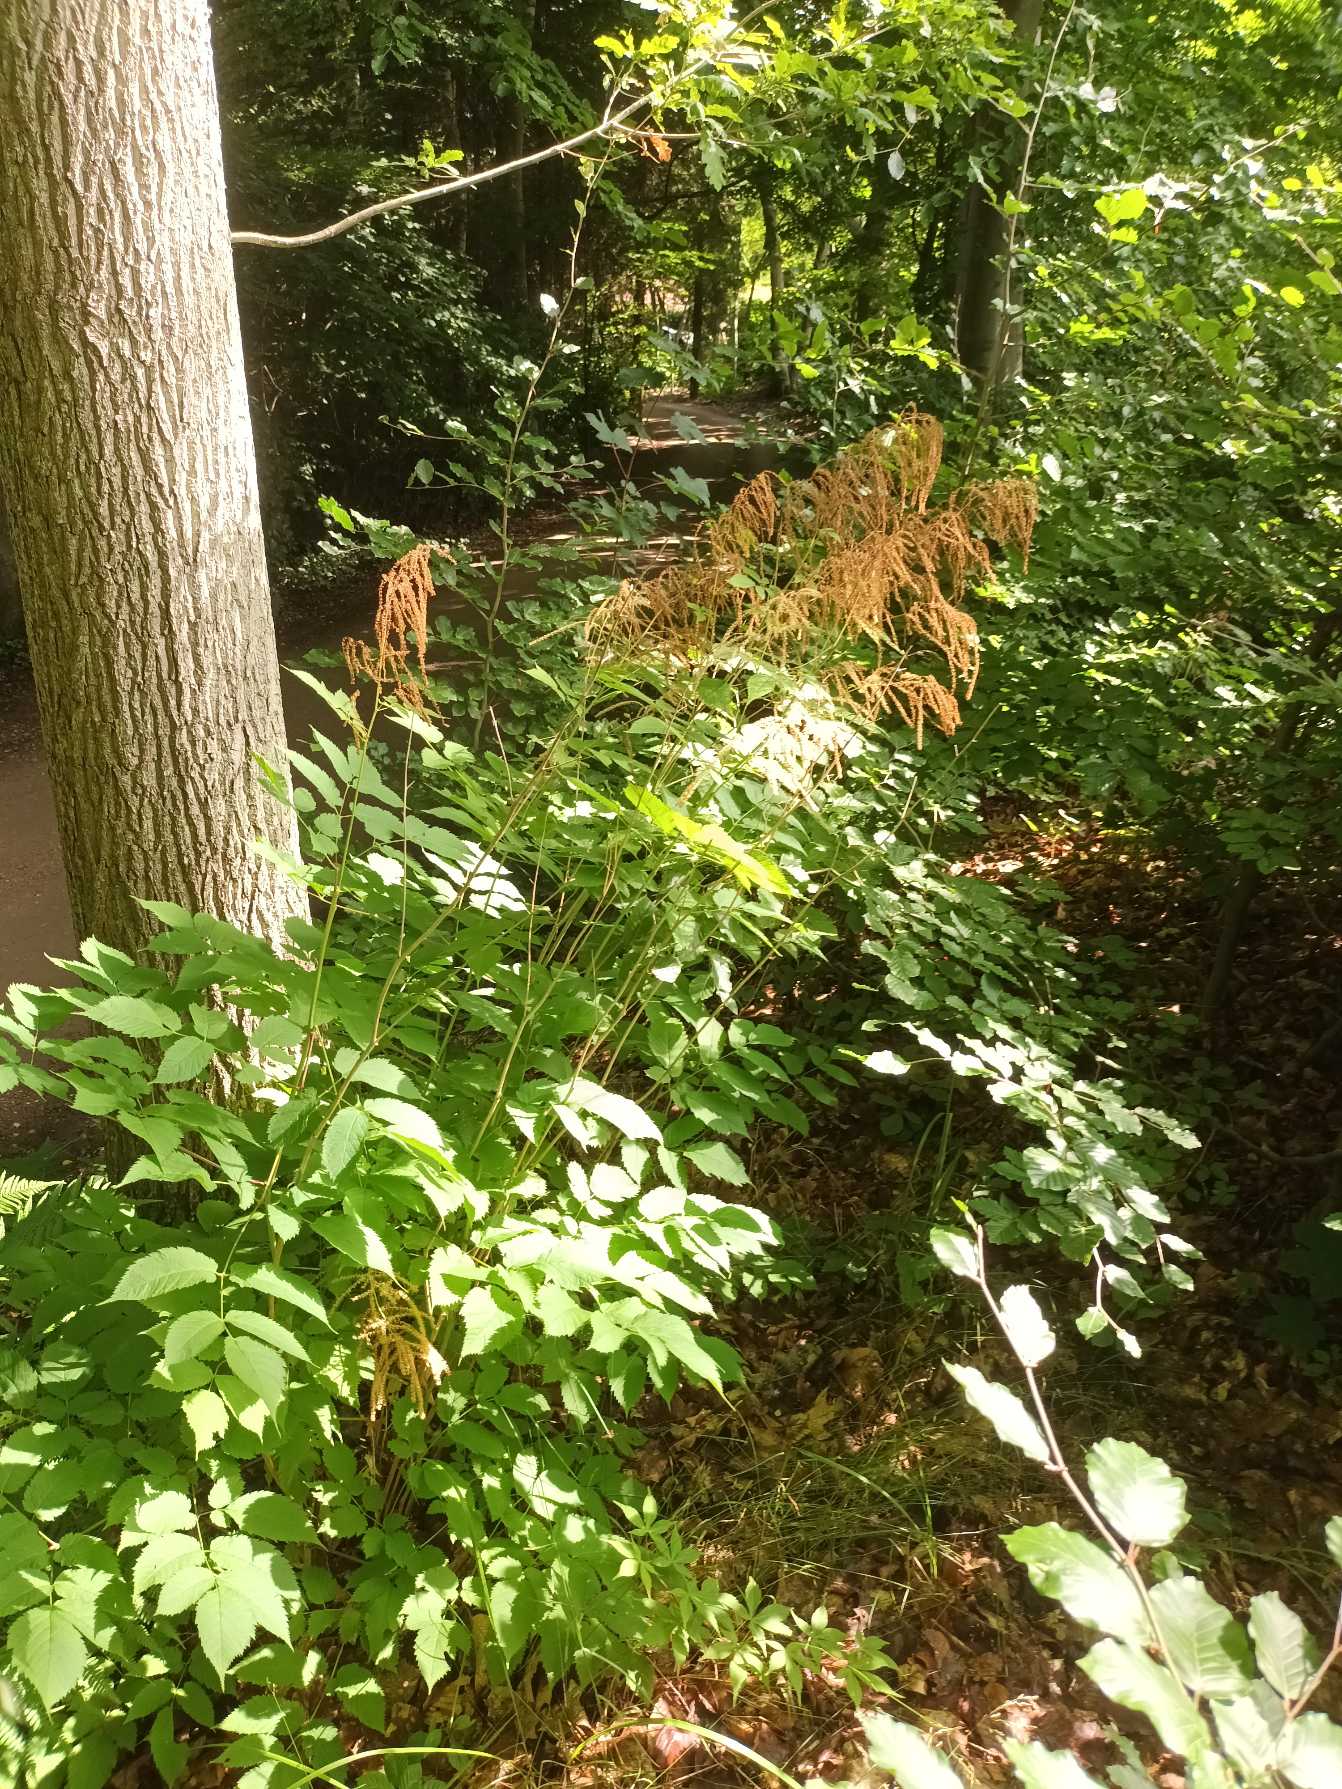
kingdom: Plantae
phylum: Tracheophyta
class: Magnoliopsida
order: Rosales
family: Rosaceae
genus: Aruncus
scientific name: Aruncus dioicus
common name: Fjerbusk
